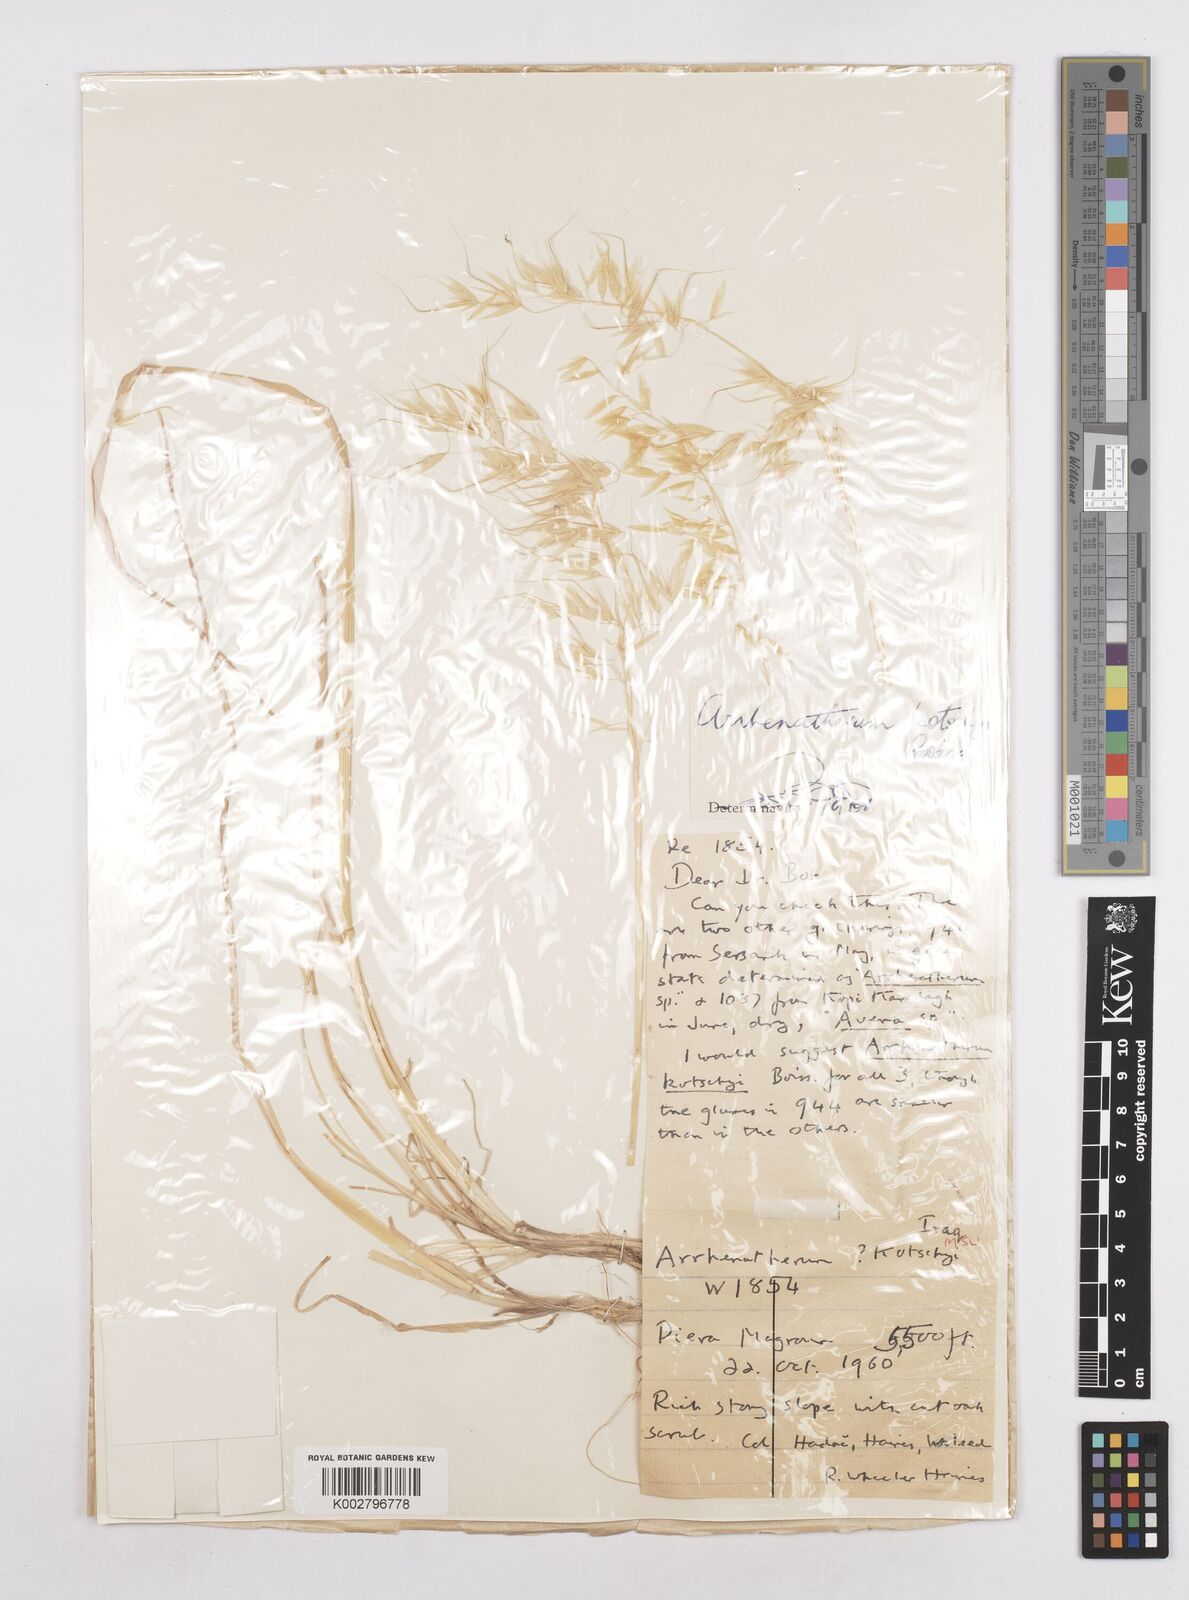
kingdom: Plantae
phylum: Tracheophyta
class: Liliopsida
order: Poales
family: Poaceae
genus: Arrhenatherum
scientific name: Arrhenatherum kotschyi
